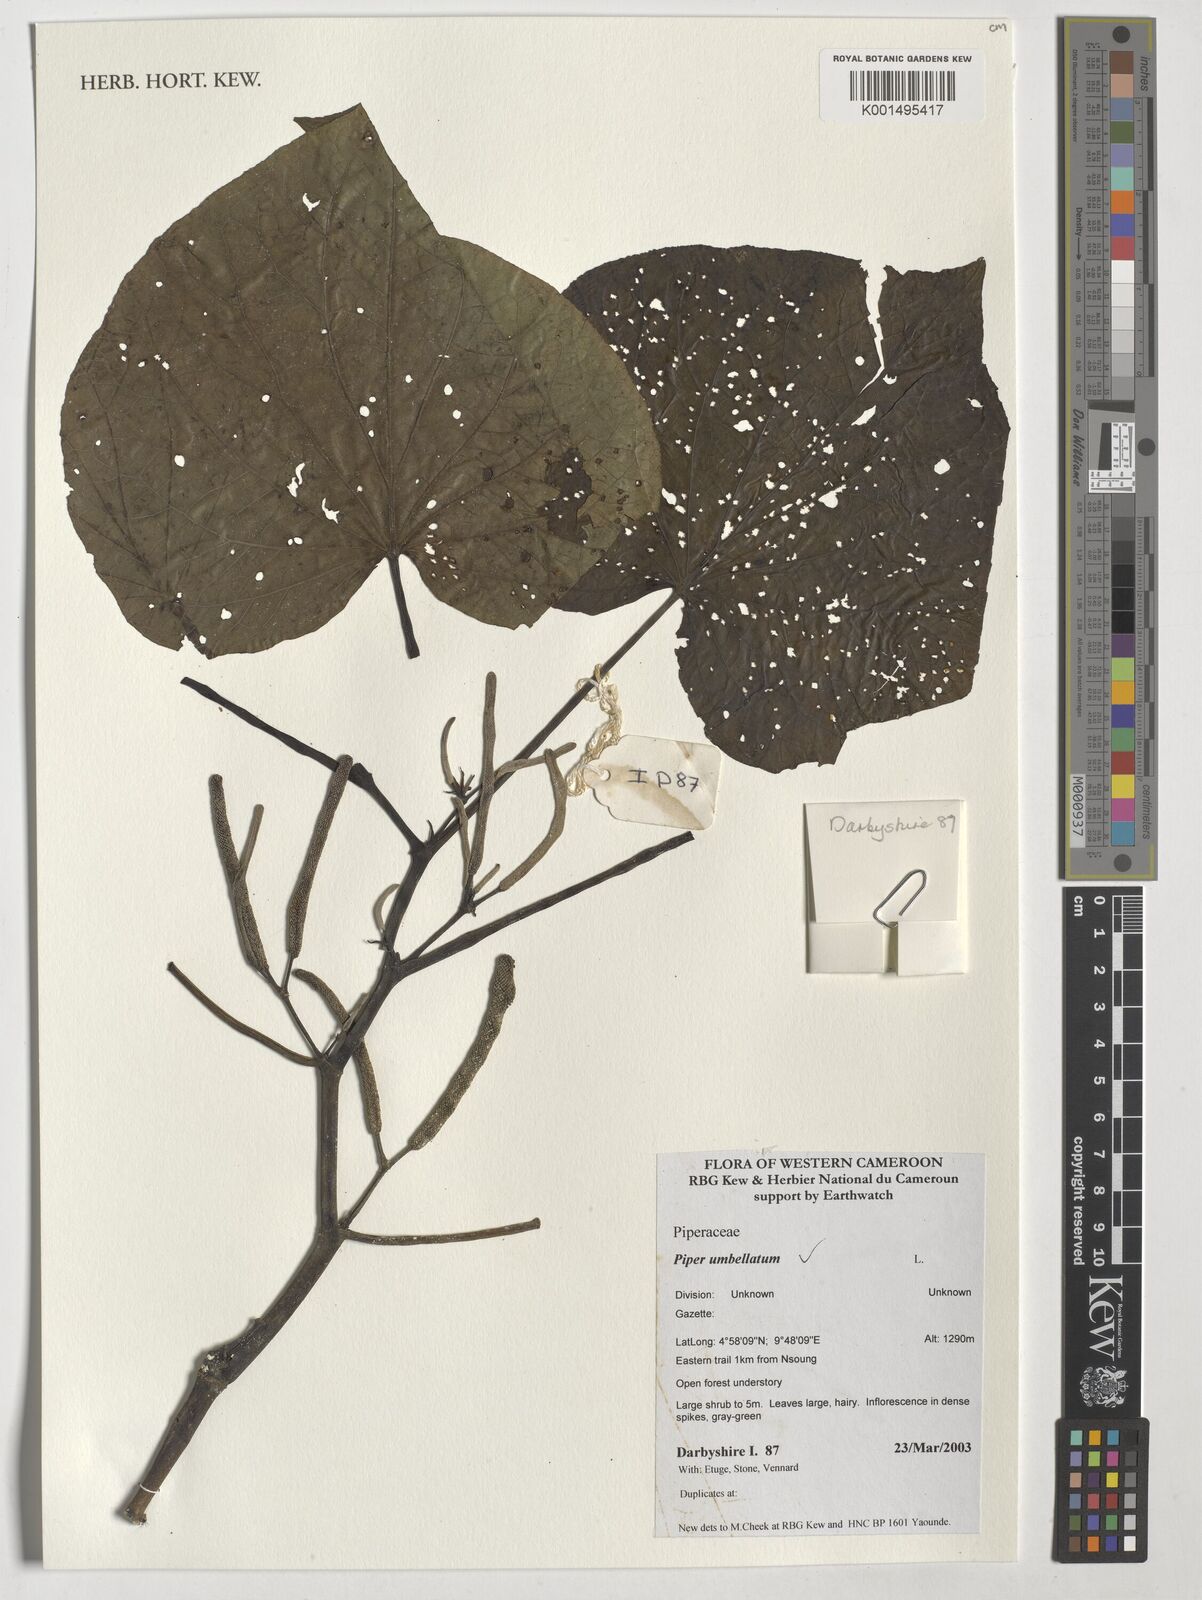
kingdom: Plantae
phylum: Tracheophyta
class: Magnoliopsida
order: Piperales
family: Piperaceae
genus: Piper
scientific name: Piper umbellatum
